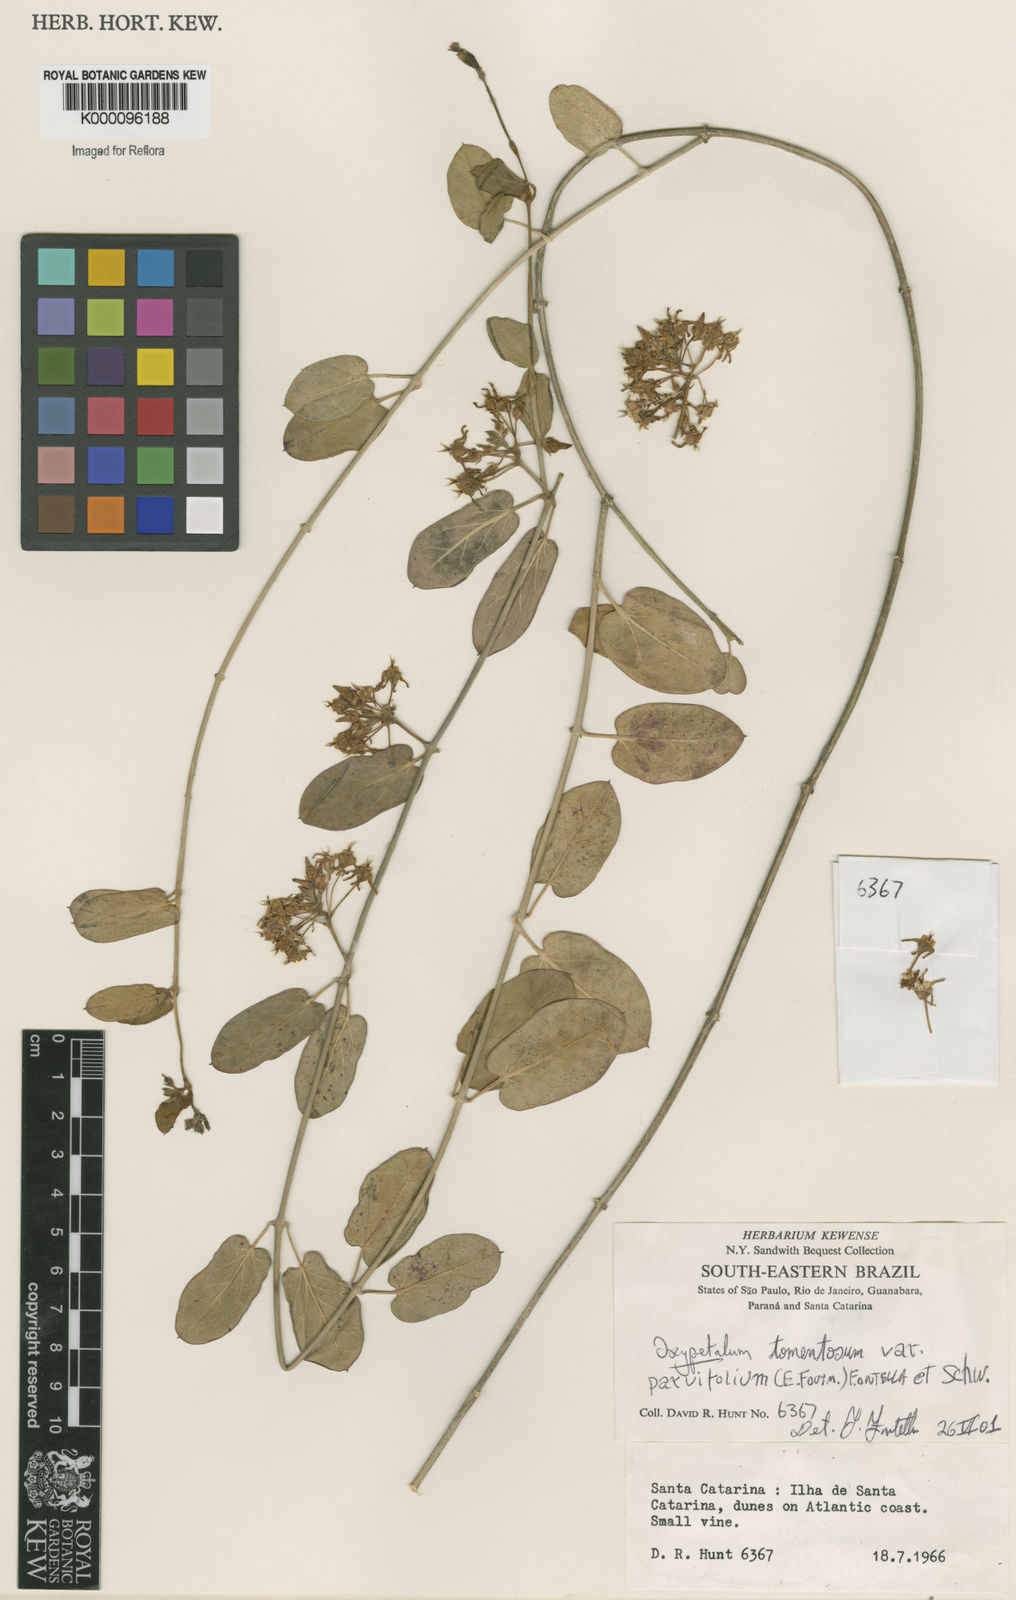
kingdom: Plantae
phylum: Tracheophyta
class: Magnoliopsida
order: Gentianales
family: Apocynaceae
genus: Oxypetalum
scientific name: Oxypetalum tomentosum
